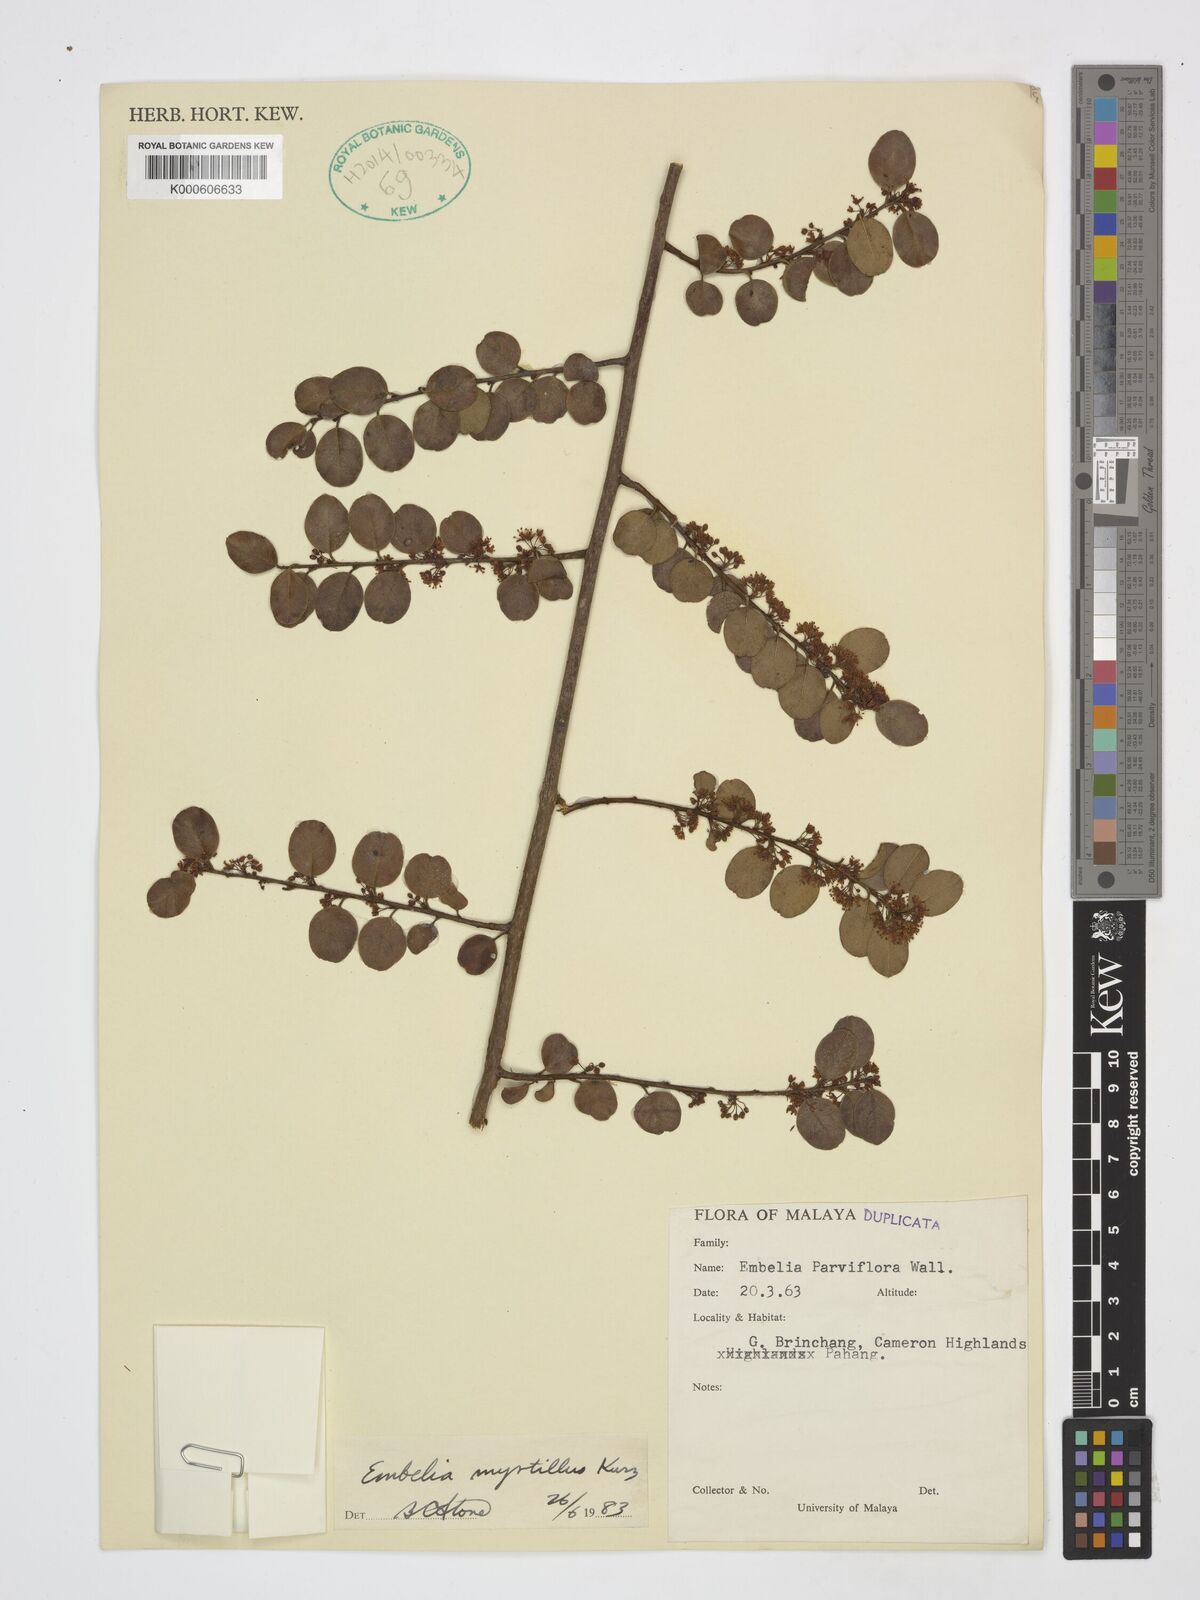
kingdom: Plantae
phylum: Tracheophyta
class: Magnoliopsida
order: Ericales
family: Primulaceae
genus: Embelia
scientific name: Embelia myrtillus
